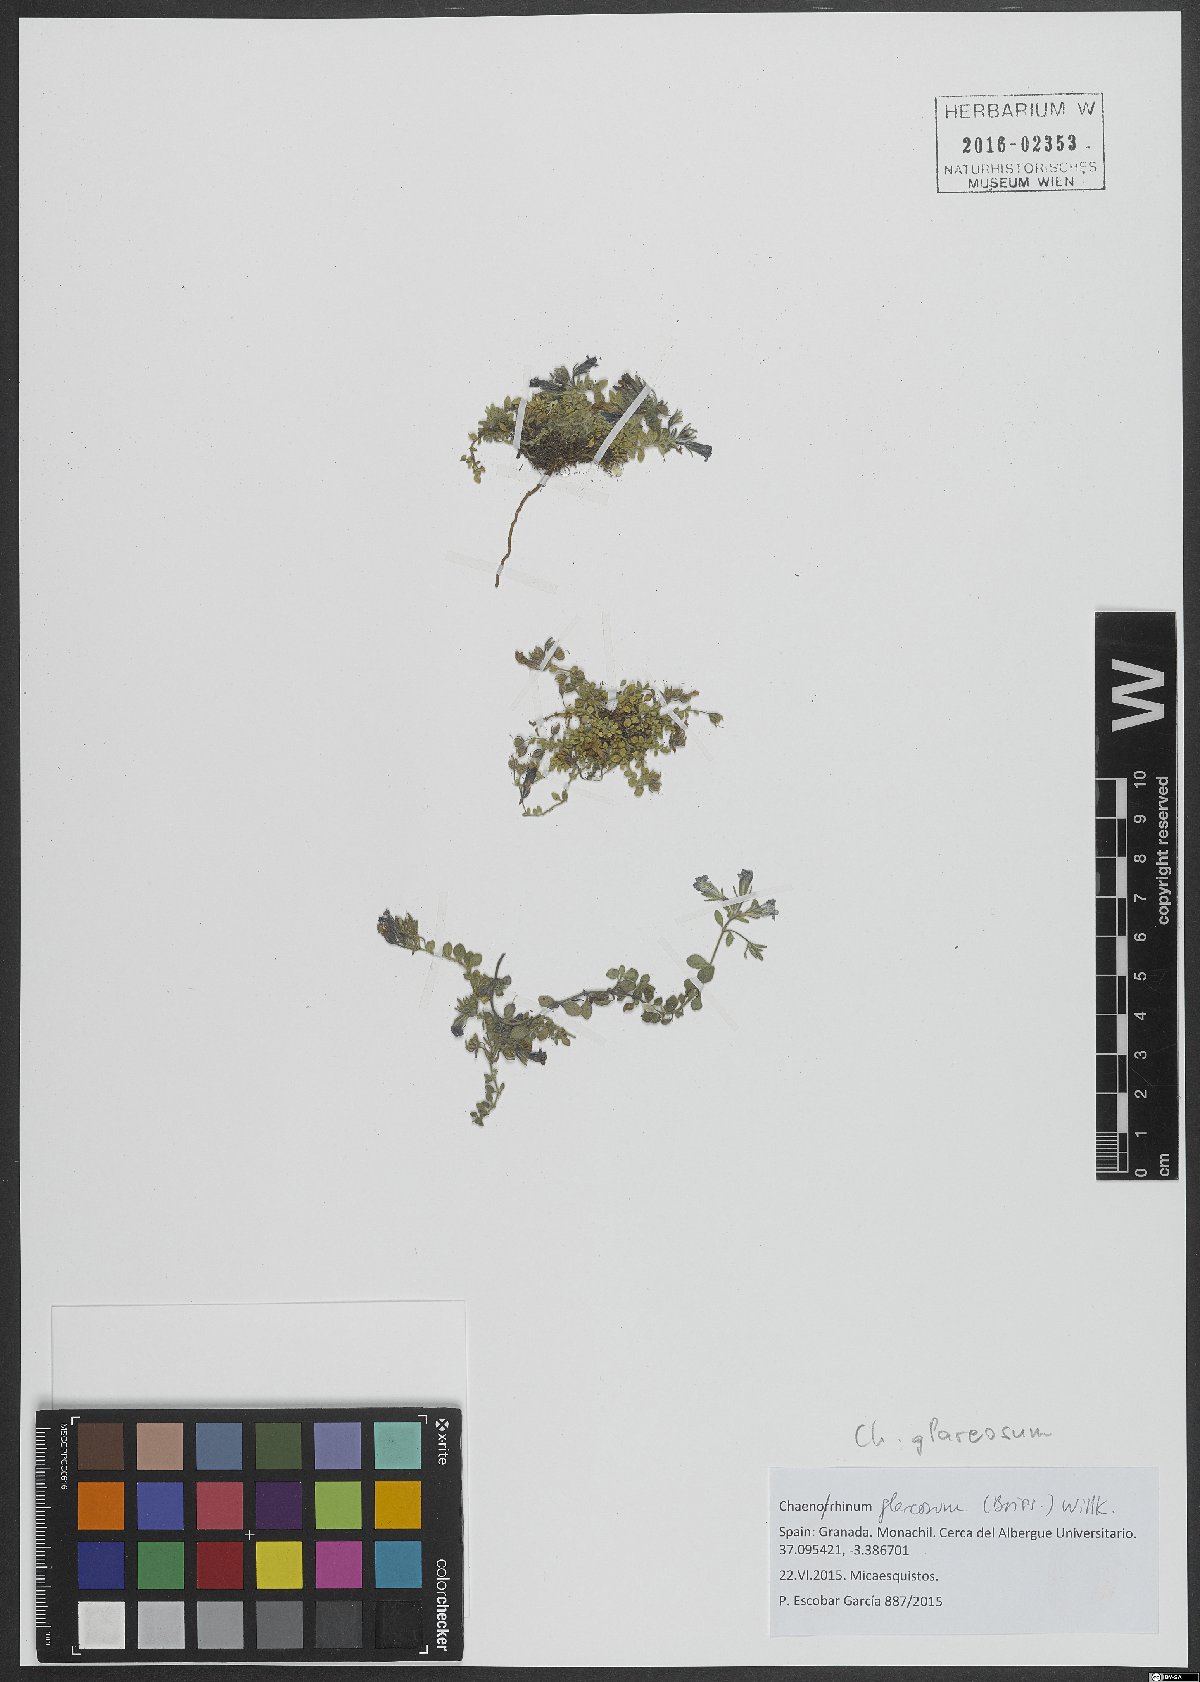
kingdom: Plantae
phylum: Tracheophyta
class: Magnoliopsida
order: Lamiales
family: Plantaginaceae
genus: Chaenorhinum
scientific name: Chaenorhinum glareosum
